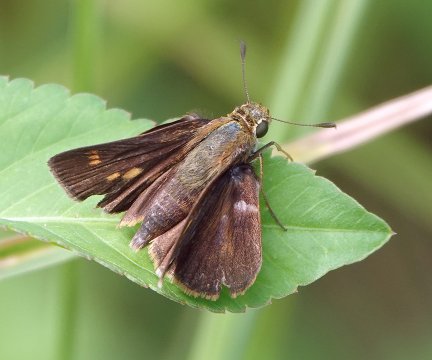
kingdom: Animalia
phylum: Arthropoda
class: Insecta
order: Lepidoptera
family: Hesperiidae
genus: Wallengrenia
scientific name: Wallengrenia otho
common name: Southern Broken-Dash
